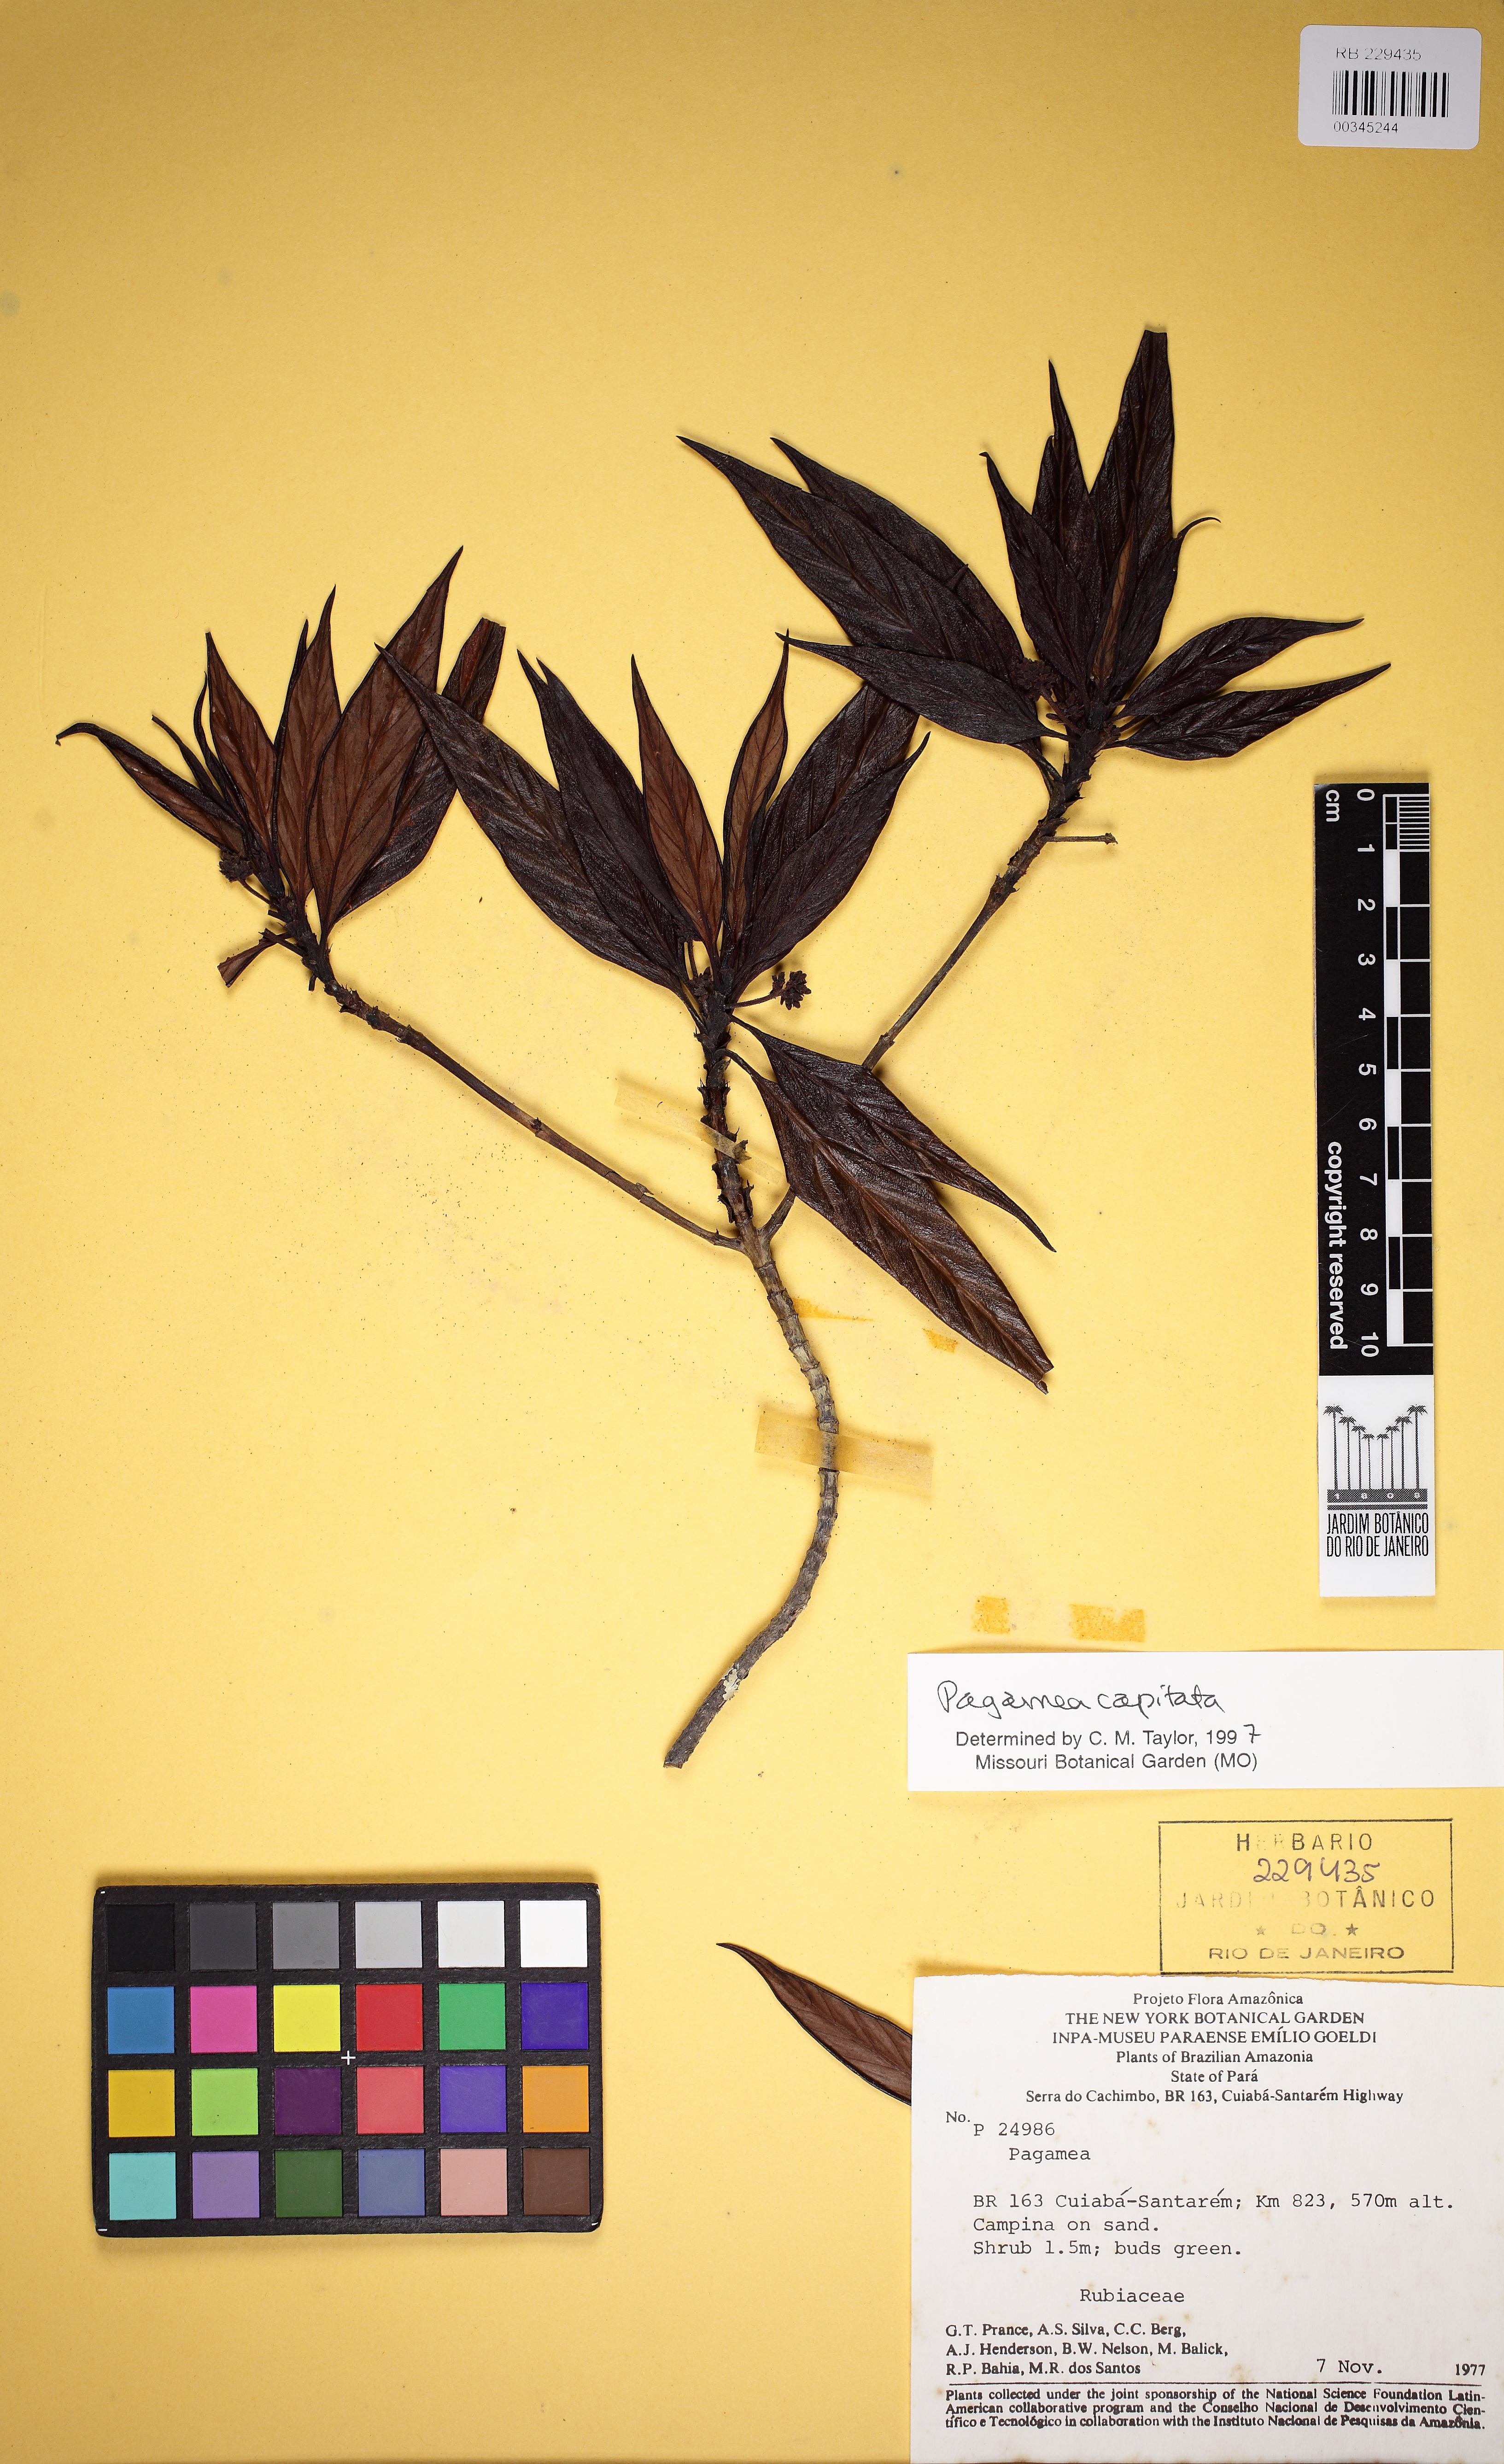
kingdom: Plantae
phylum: Tracheophyta
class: Magnoliopsida
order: Gentianales
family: Rubiaceae
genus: Pagamea
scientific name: Pagamea capitata
